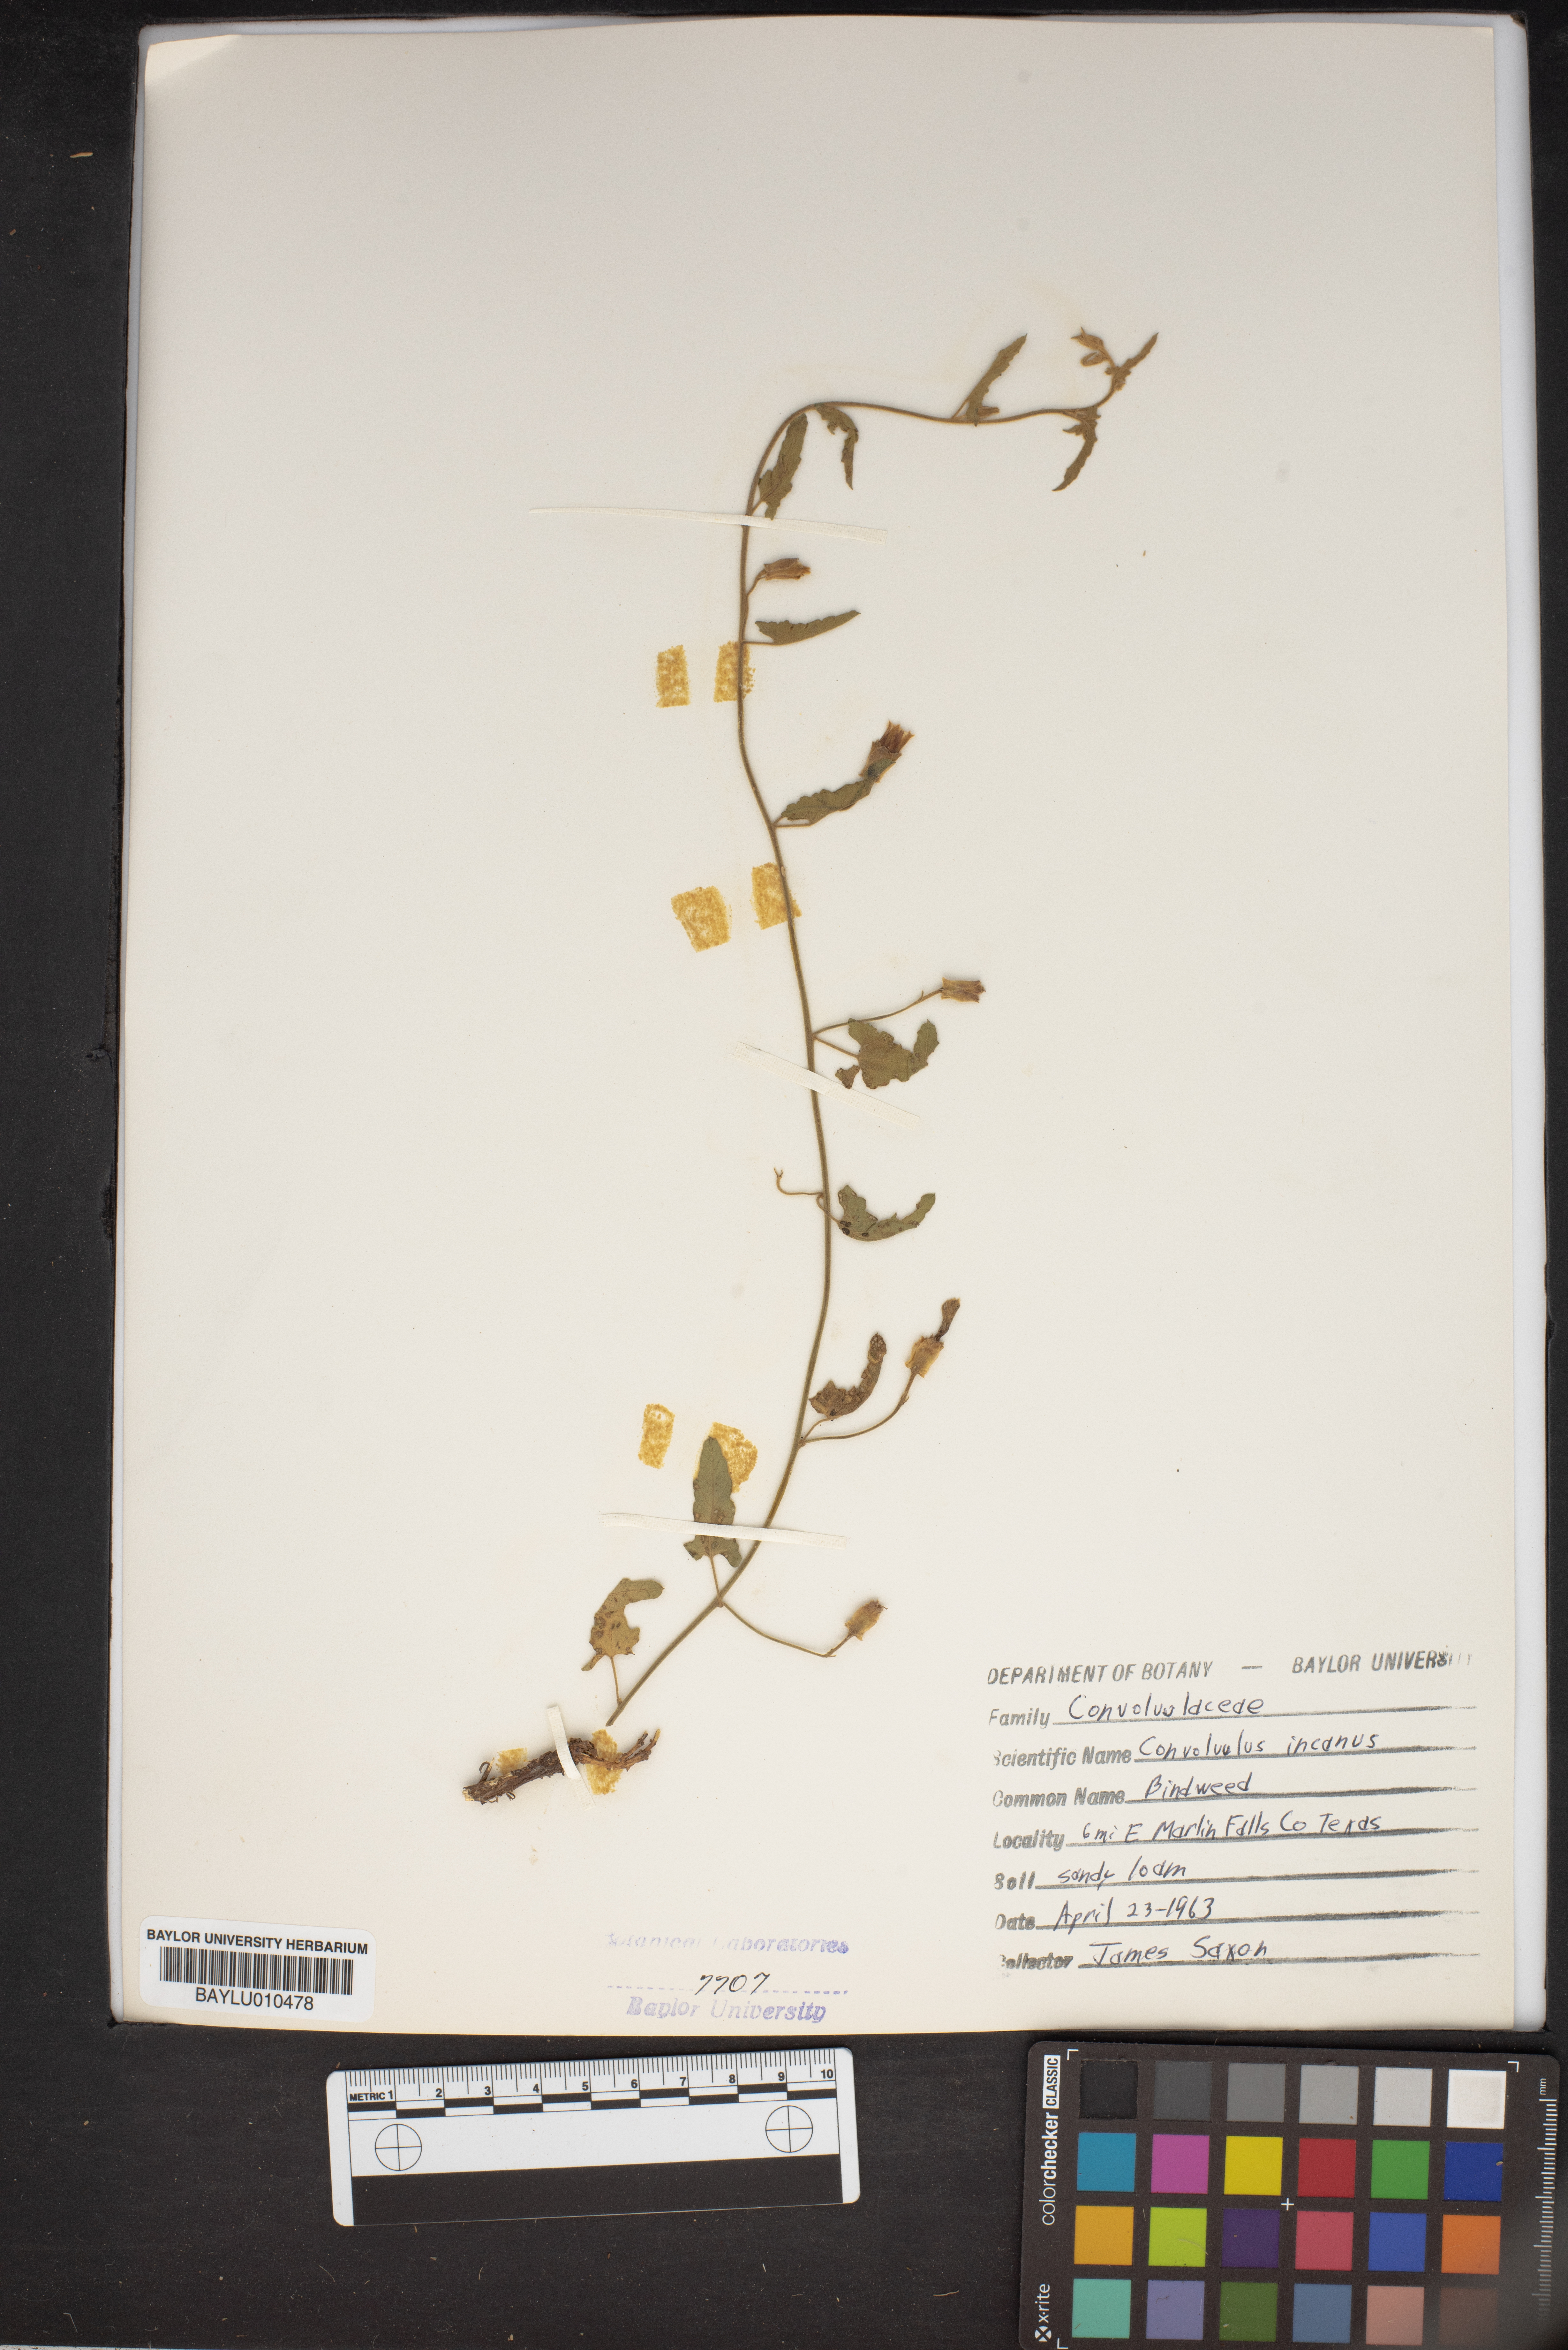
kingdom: Plantae
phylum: Tracheophyta
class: Magnoliopsida
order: Solanales
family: Convolvulaceae
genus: Convolvulus
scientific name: Convolvulus hermanniae
